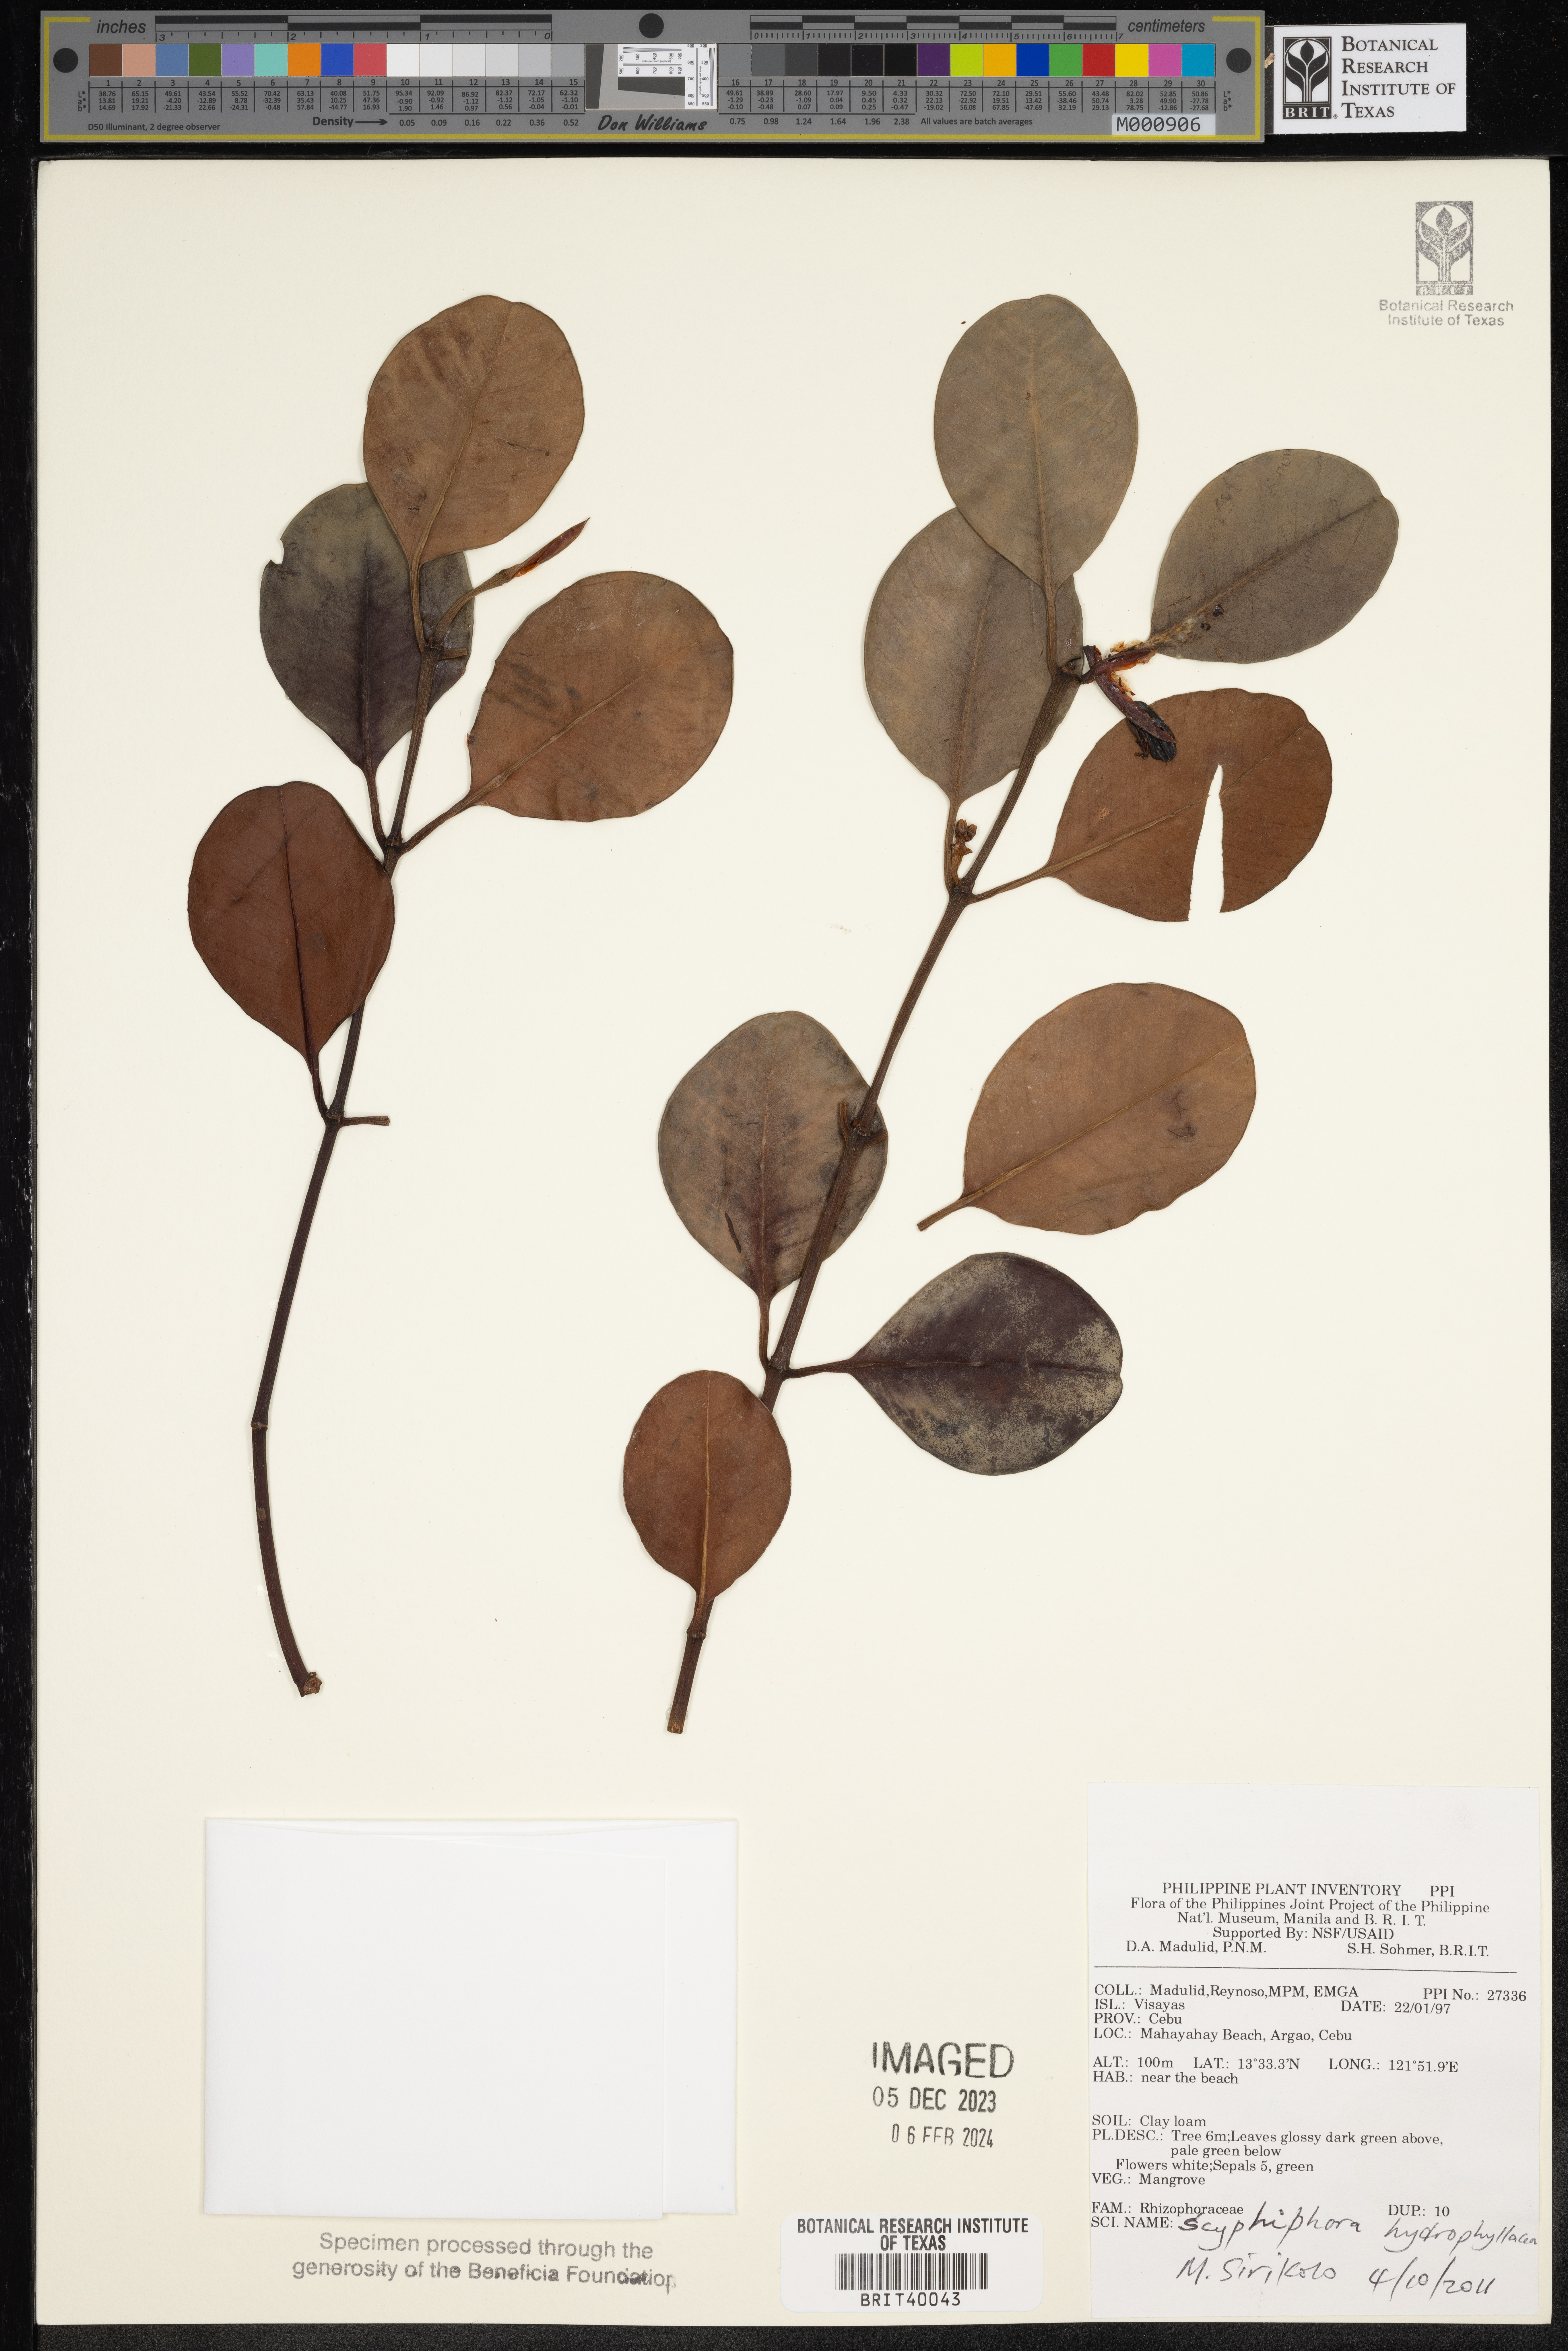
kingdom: Plantae
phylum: Tracheophyta
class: Magnoliopsida
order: Malpighiales
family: Rhizophoraceae
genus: Rhizophora
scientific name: Rhizophora
